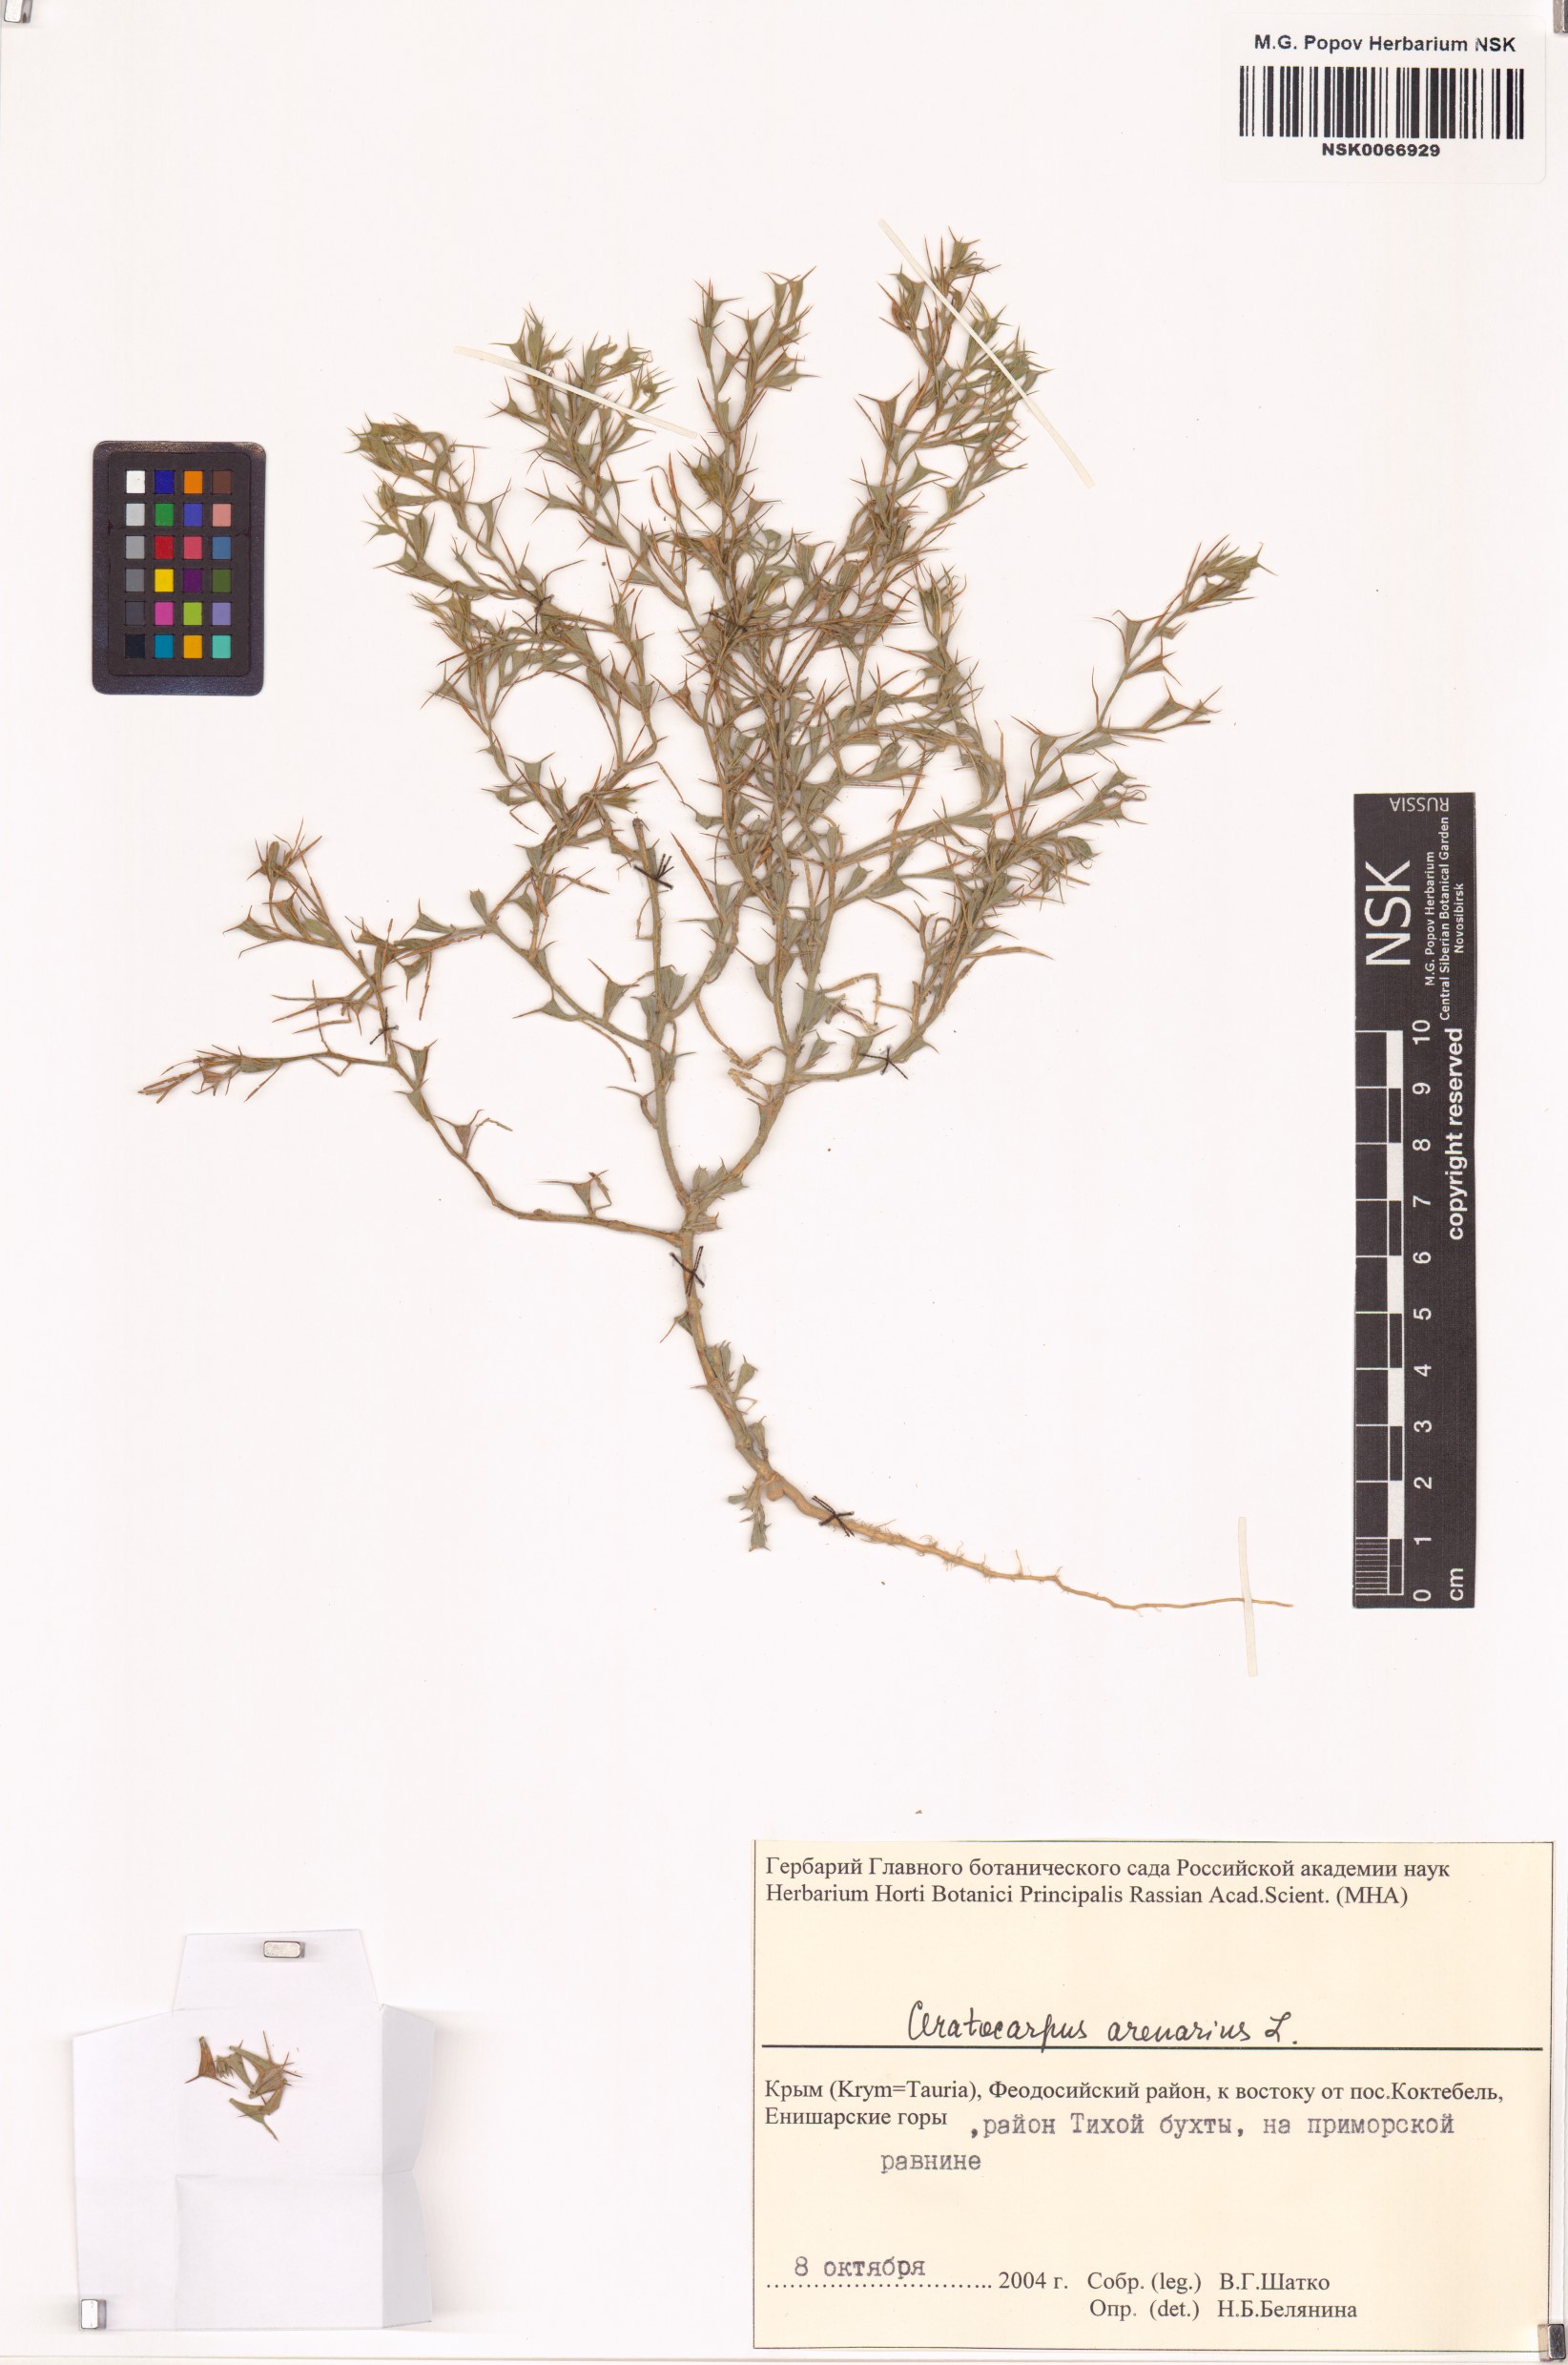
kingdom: Plantae
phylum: Tracheophyta
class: Magnoliopsida
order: Caryophyllales
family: Amaranthaceae
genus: Ceratocarpus
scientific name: Ceratocarpus arenarius
